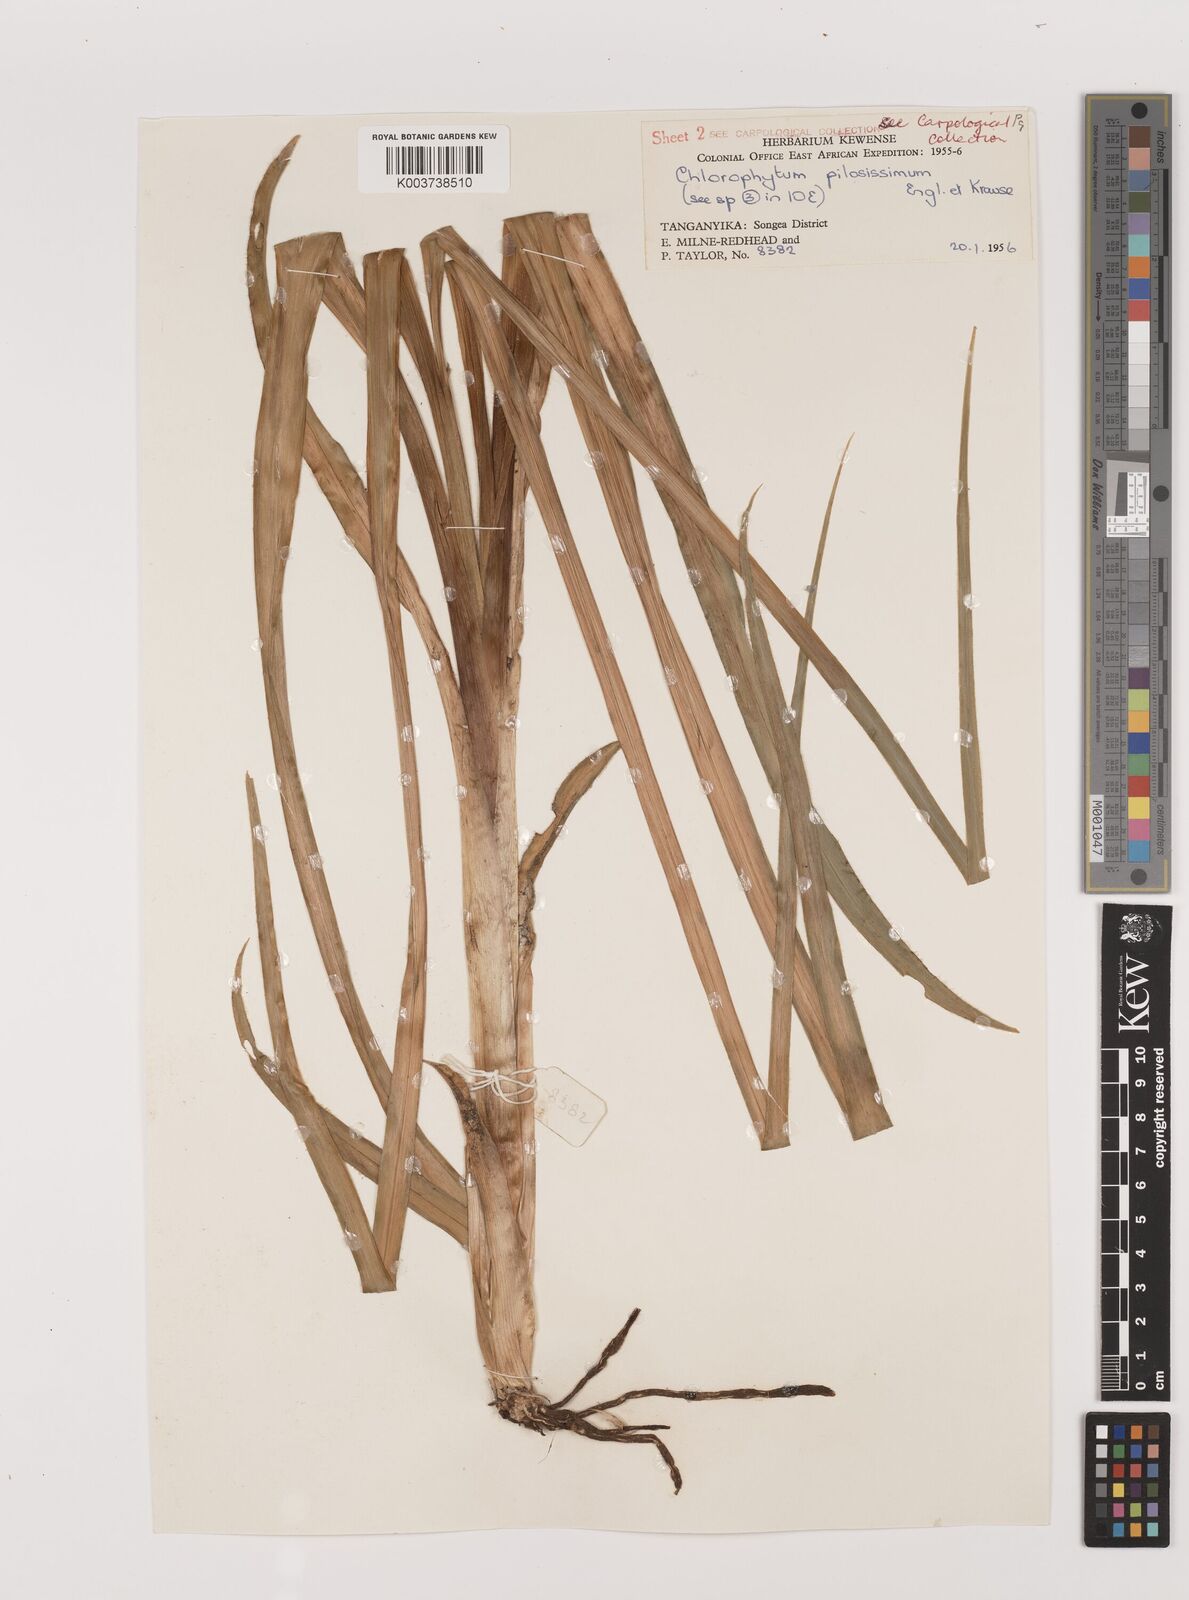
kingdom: Plantae
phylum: Tracheophyta
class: Liliopsida
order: Asparagales
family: Asparagaceae
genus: Chlorophytum
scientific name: Chlorophytum polystachys
